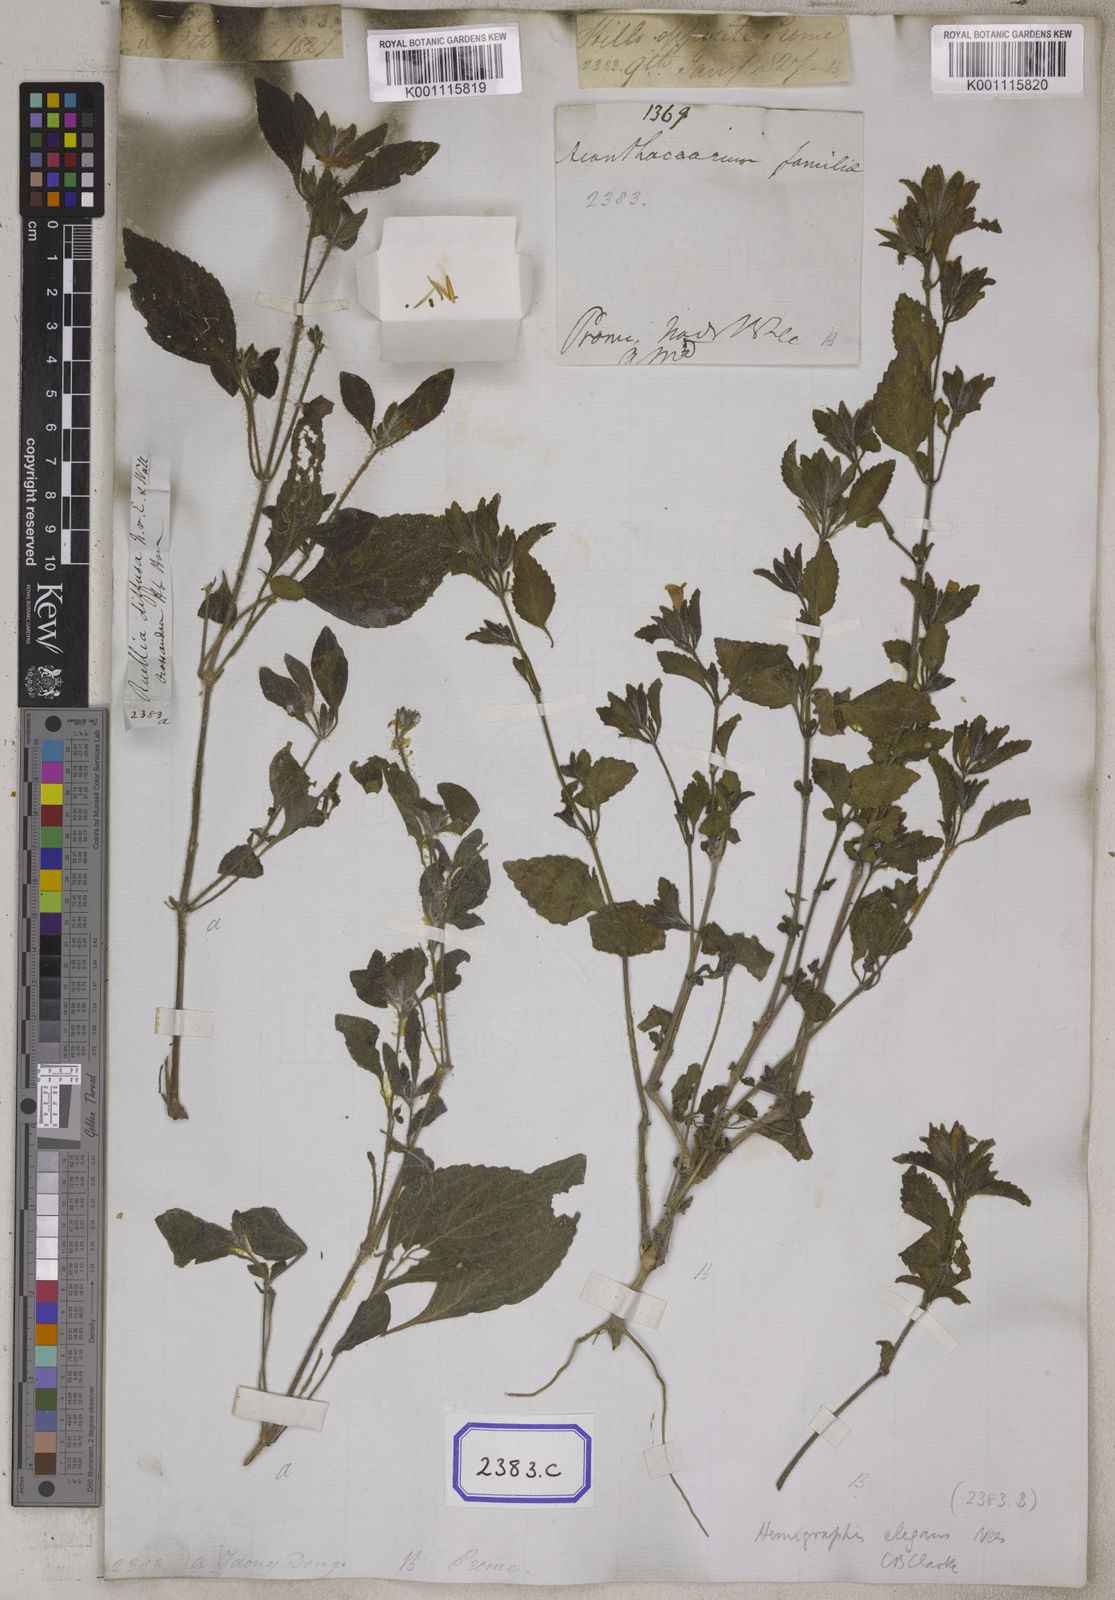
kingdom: Plantae
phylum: Tracheophyta
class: Magnoliopsida
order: Lamiales
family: Acanthaceae
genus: Ruellia
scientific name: Ruellia
